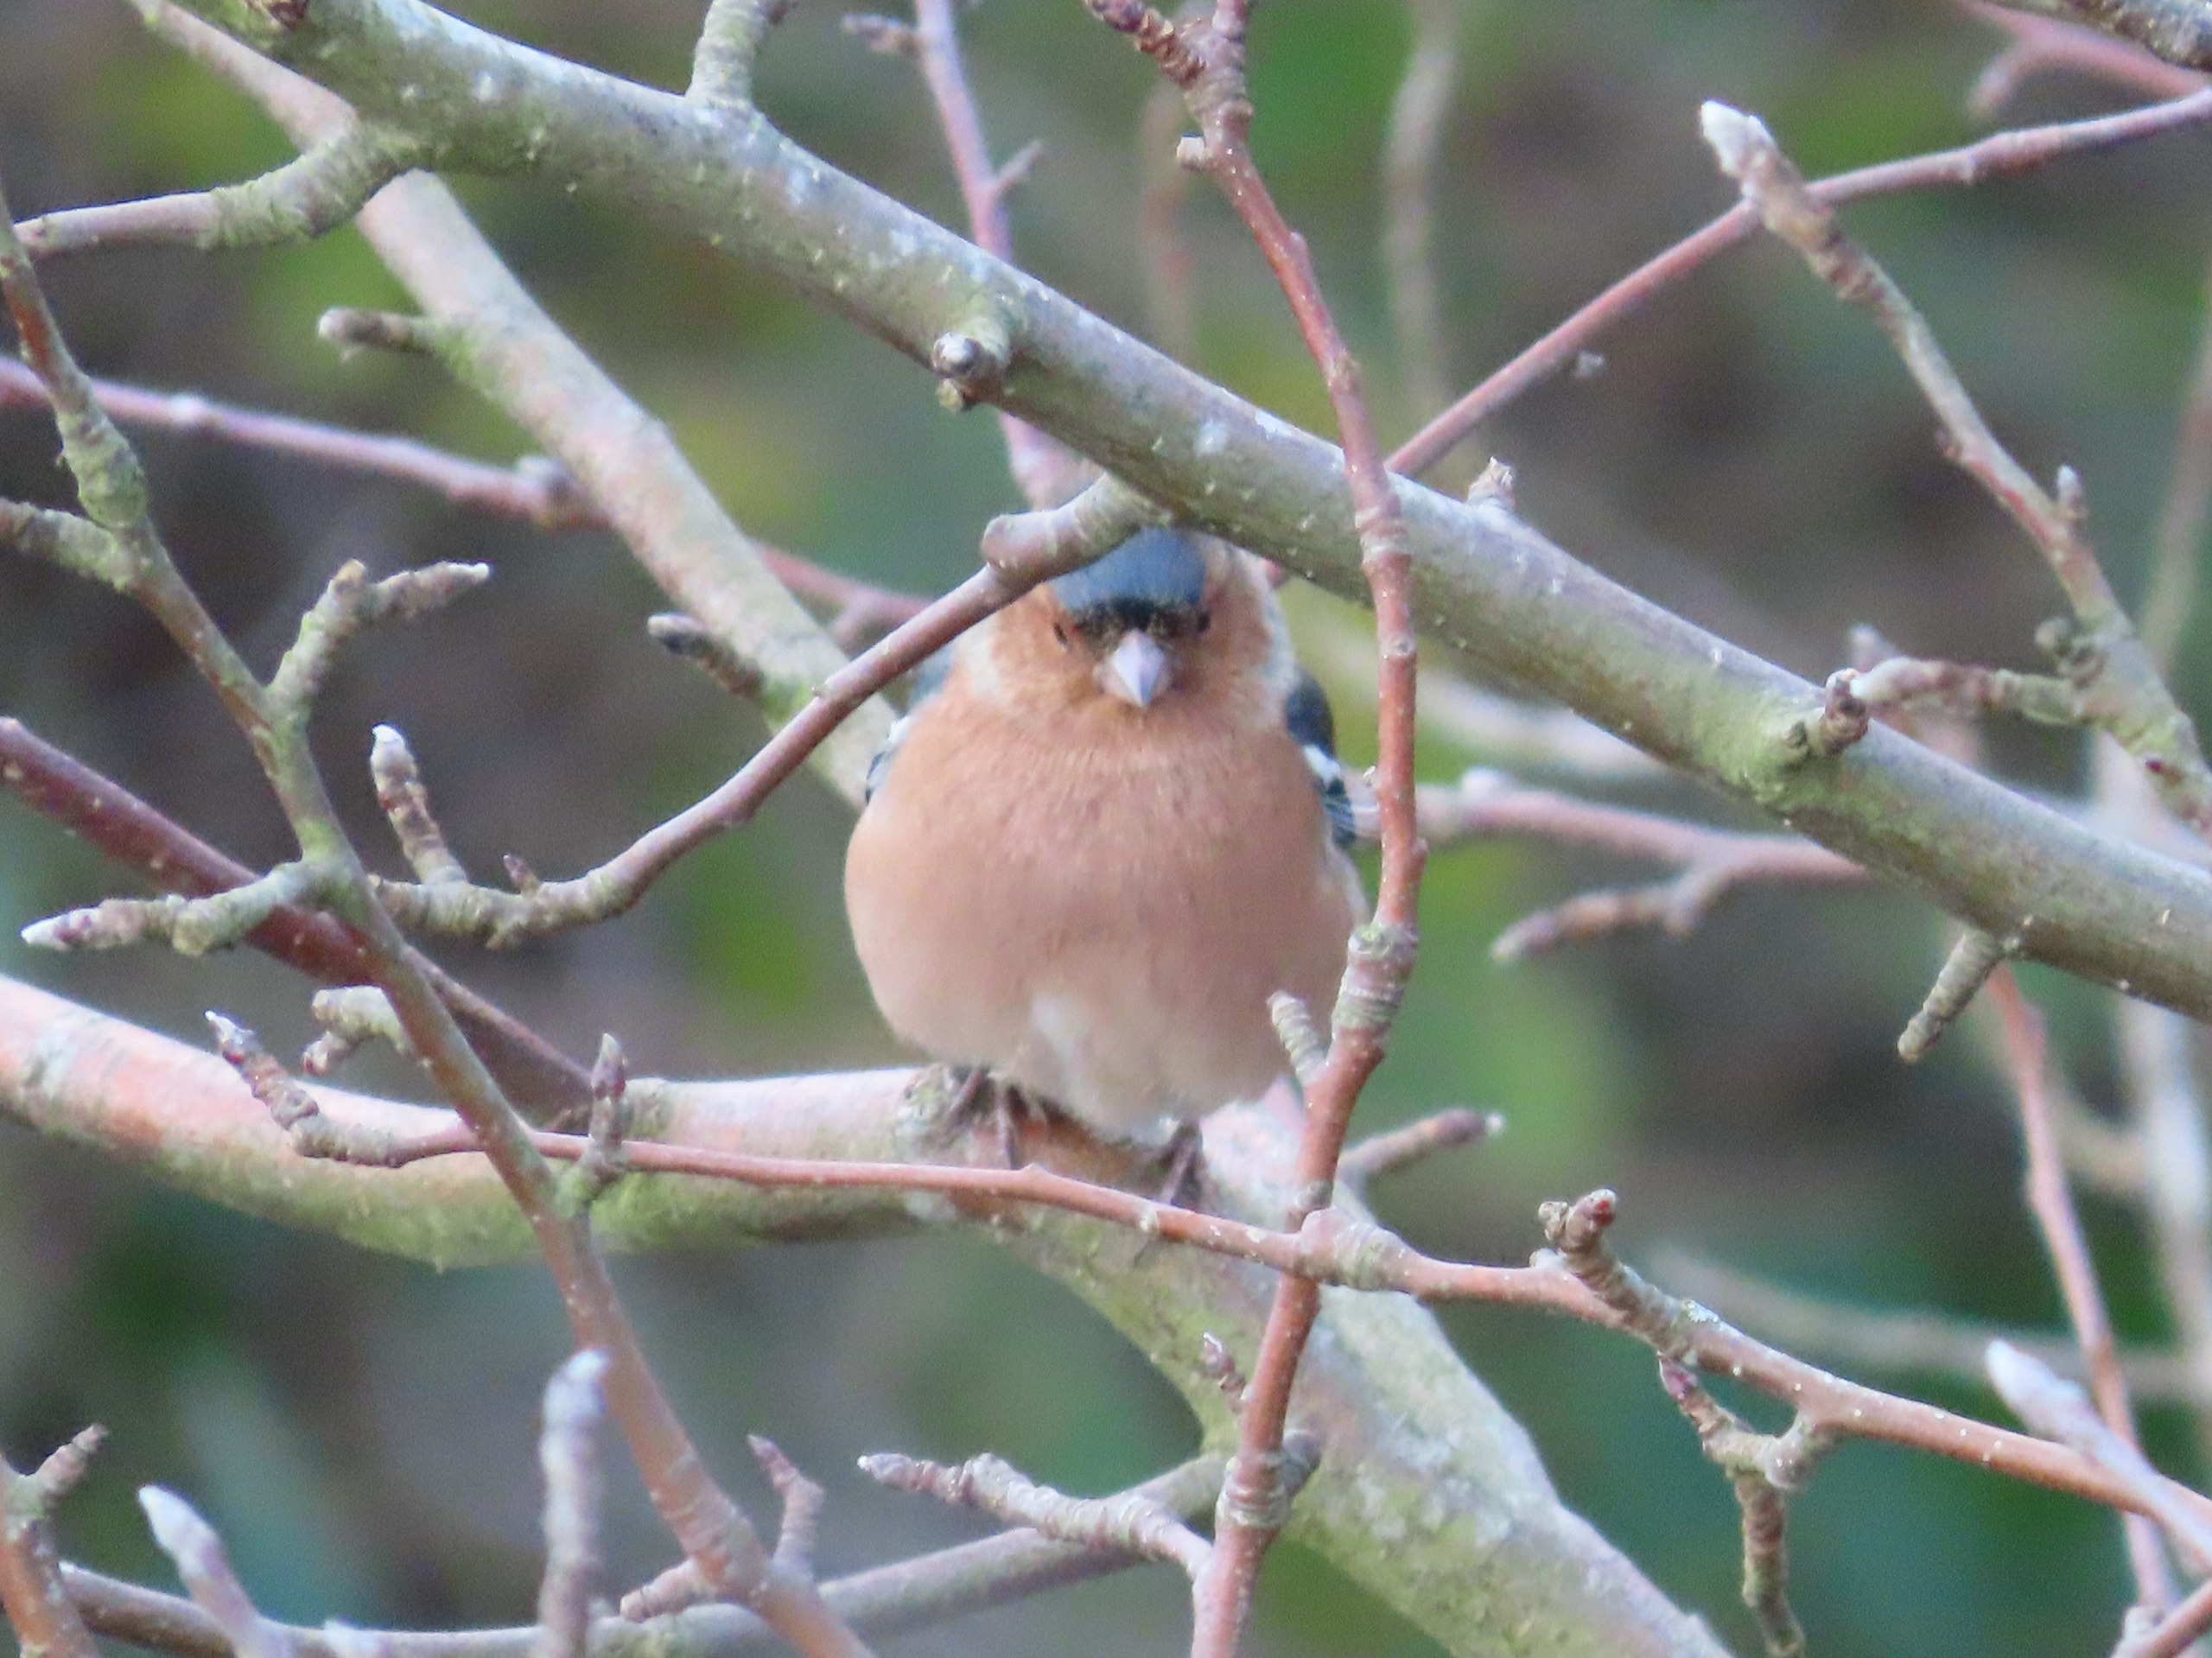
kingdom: Animalia
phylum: Chordata
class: Aves
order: Passeriformes
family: Fringillidae
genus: Fringilla
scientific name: Fringilla coelebs
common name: Bogfinke
